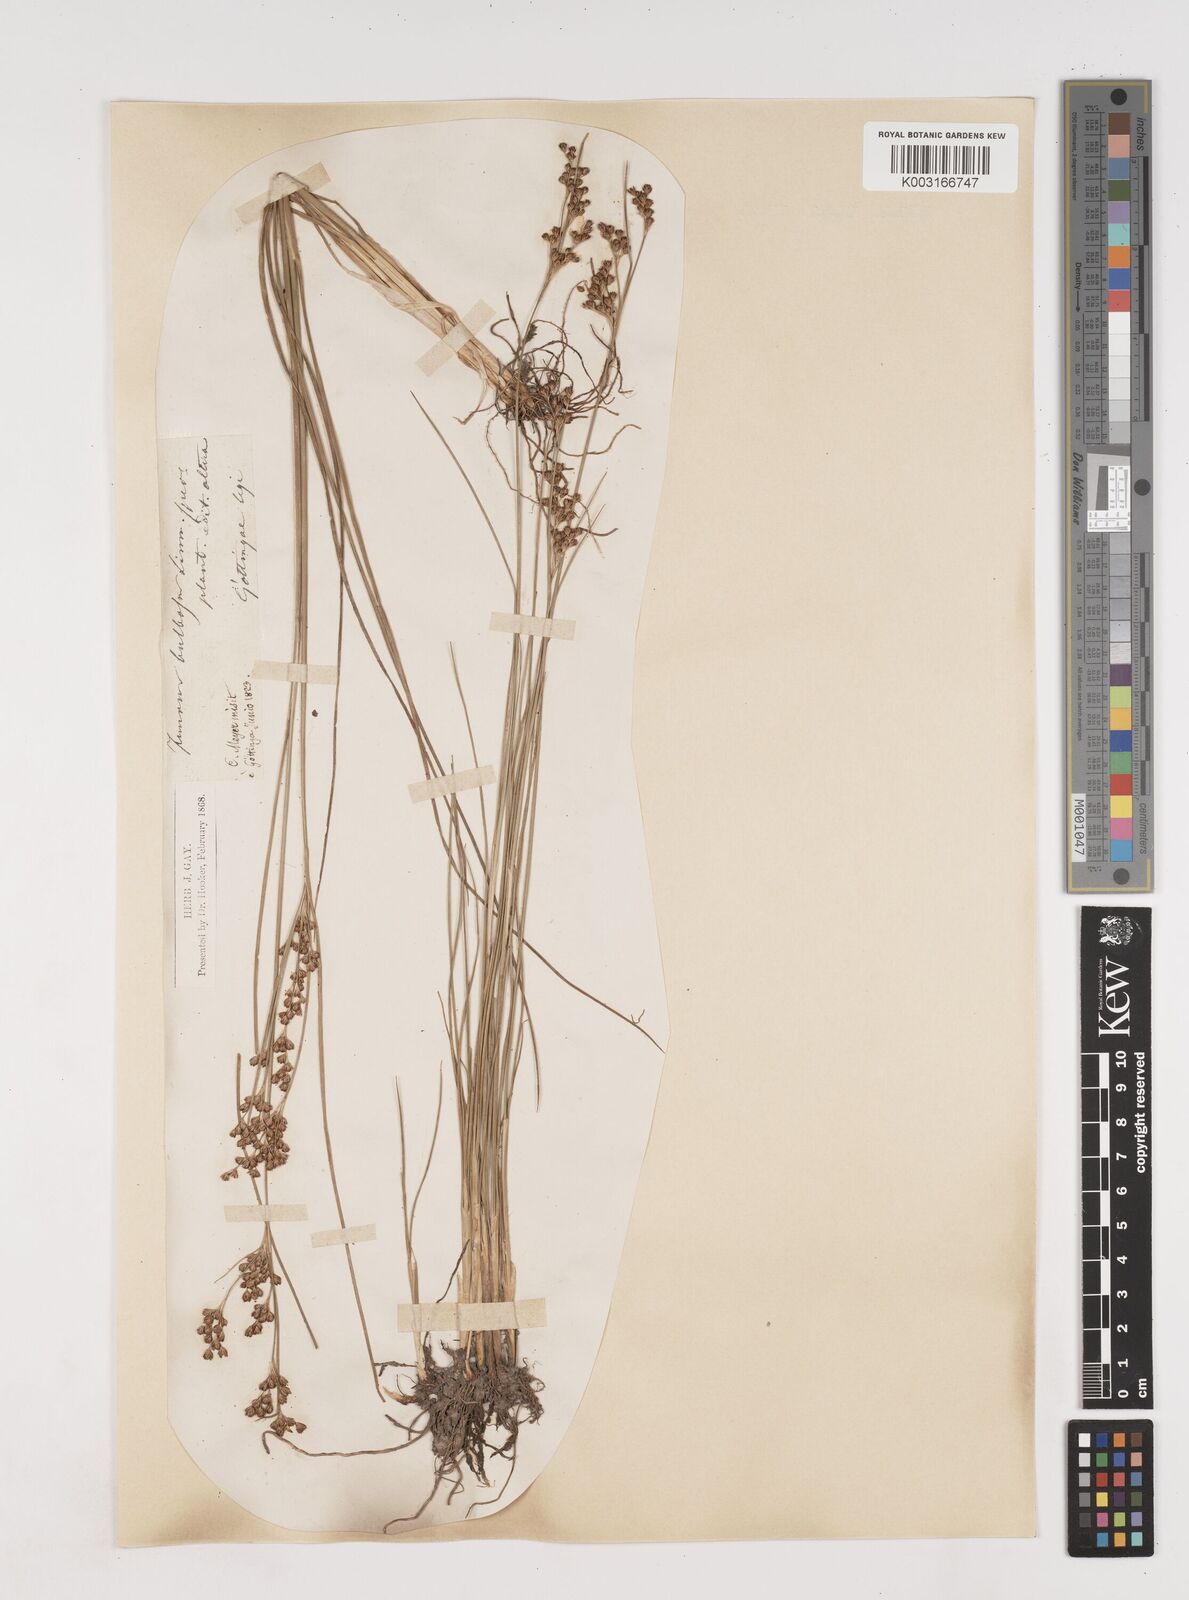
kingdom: Plantae
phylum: Tracheophyta
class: Liliopsida
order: Poales
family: Juncaceae
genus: Juncus
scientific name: Juncus
